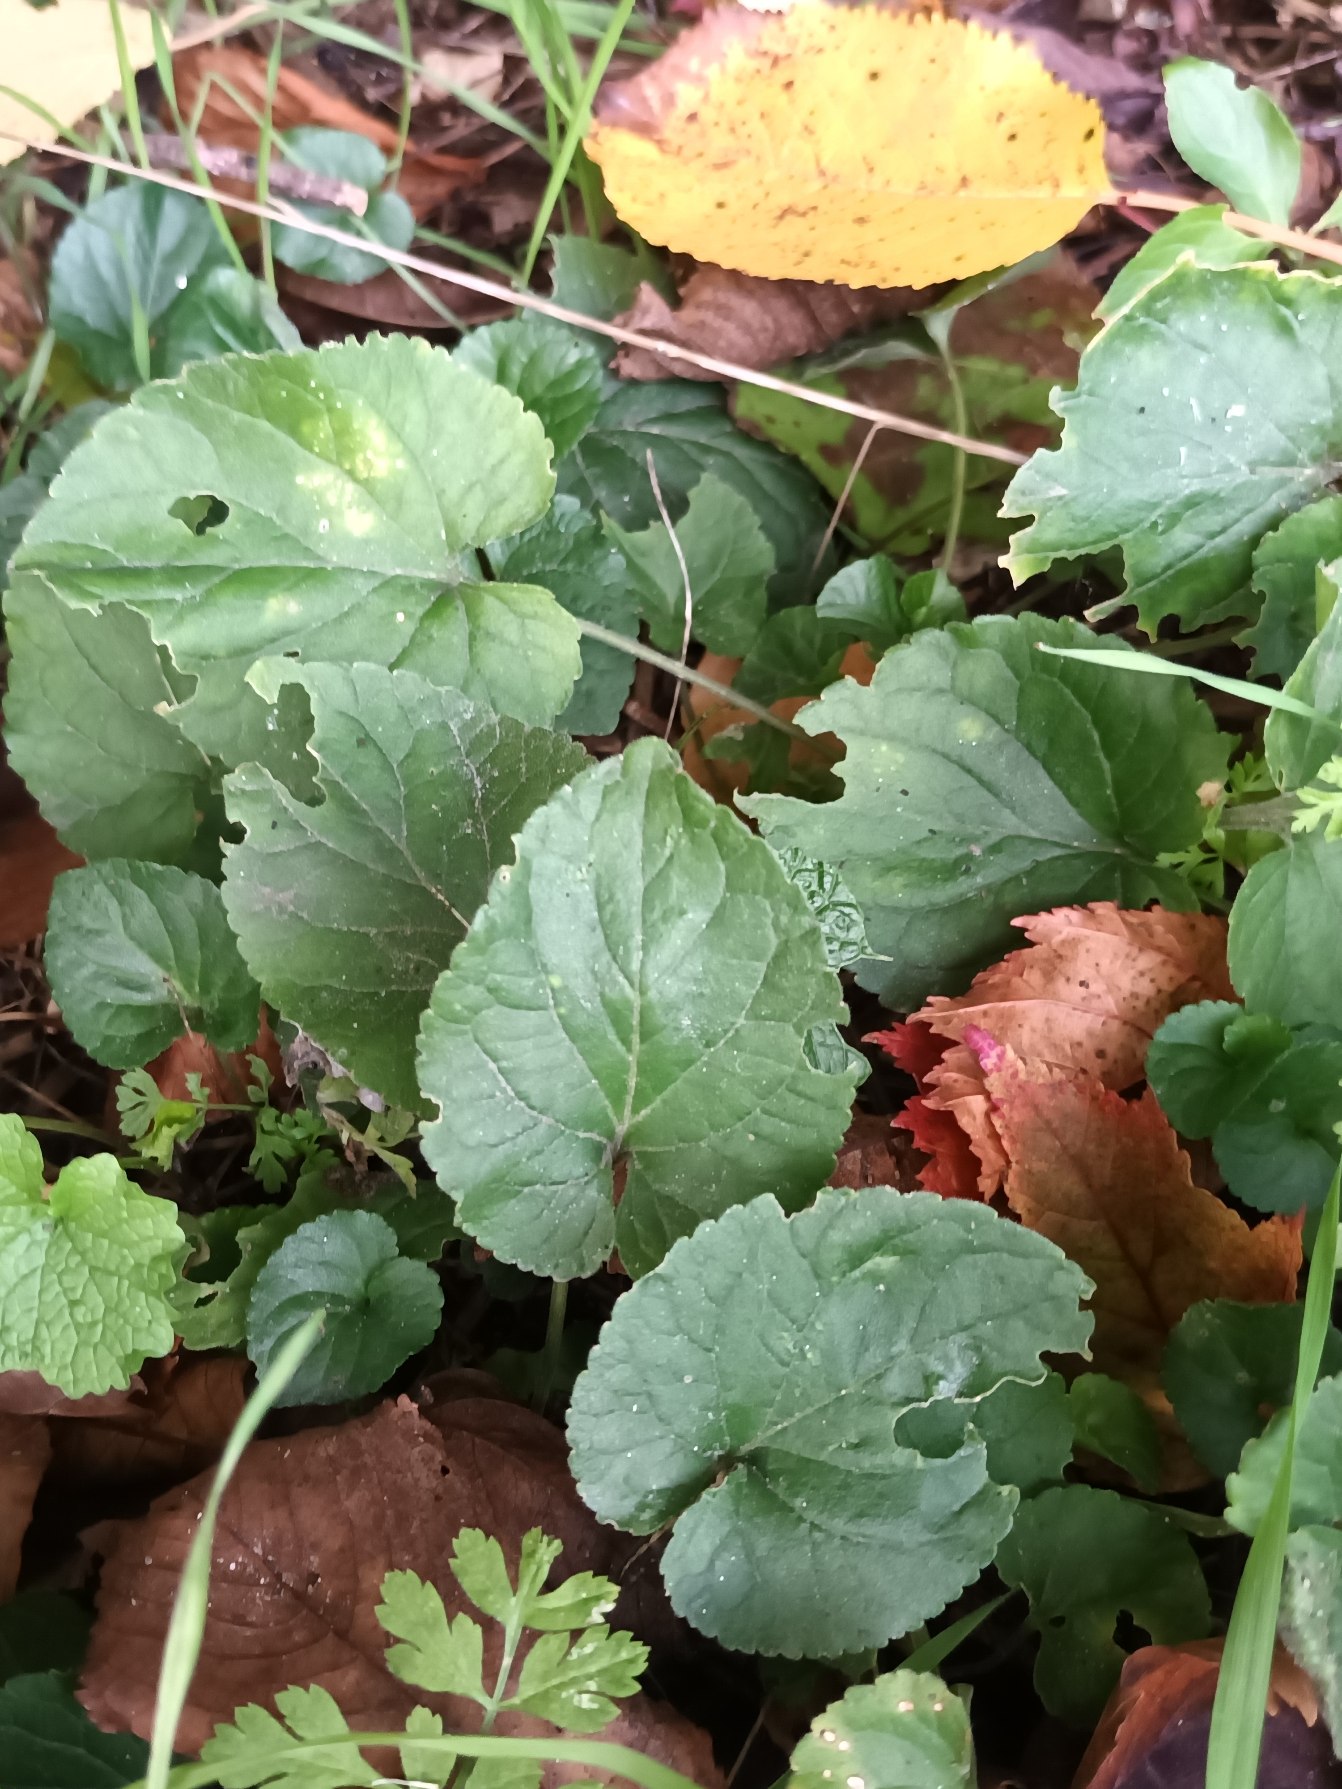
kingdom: Plantae
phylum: Tracheophyta
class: Magnoliopsida
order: Malpighiales
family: Violaceae
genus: Viola
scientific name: Viola odorata
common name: Marts-viol
